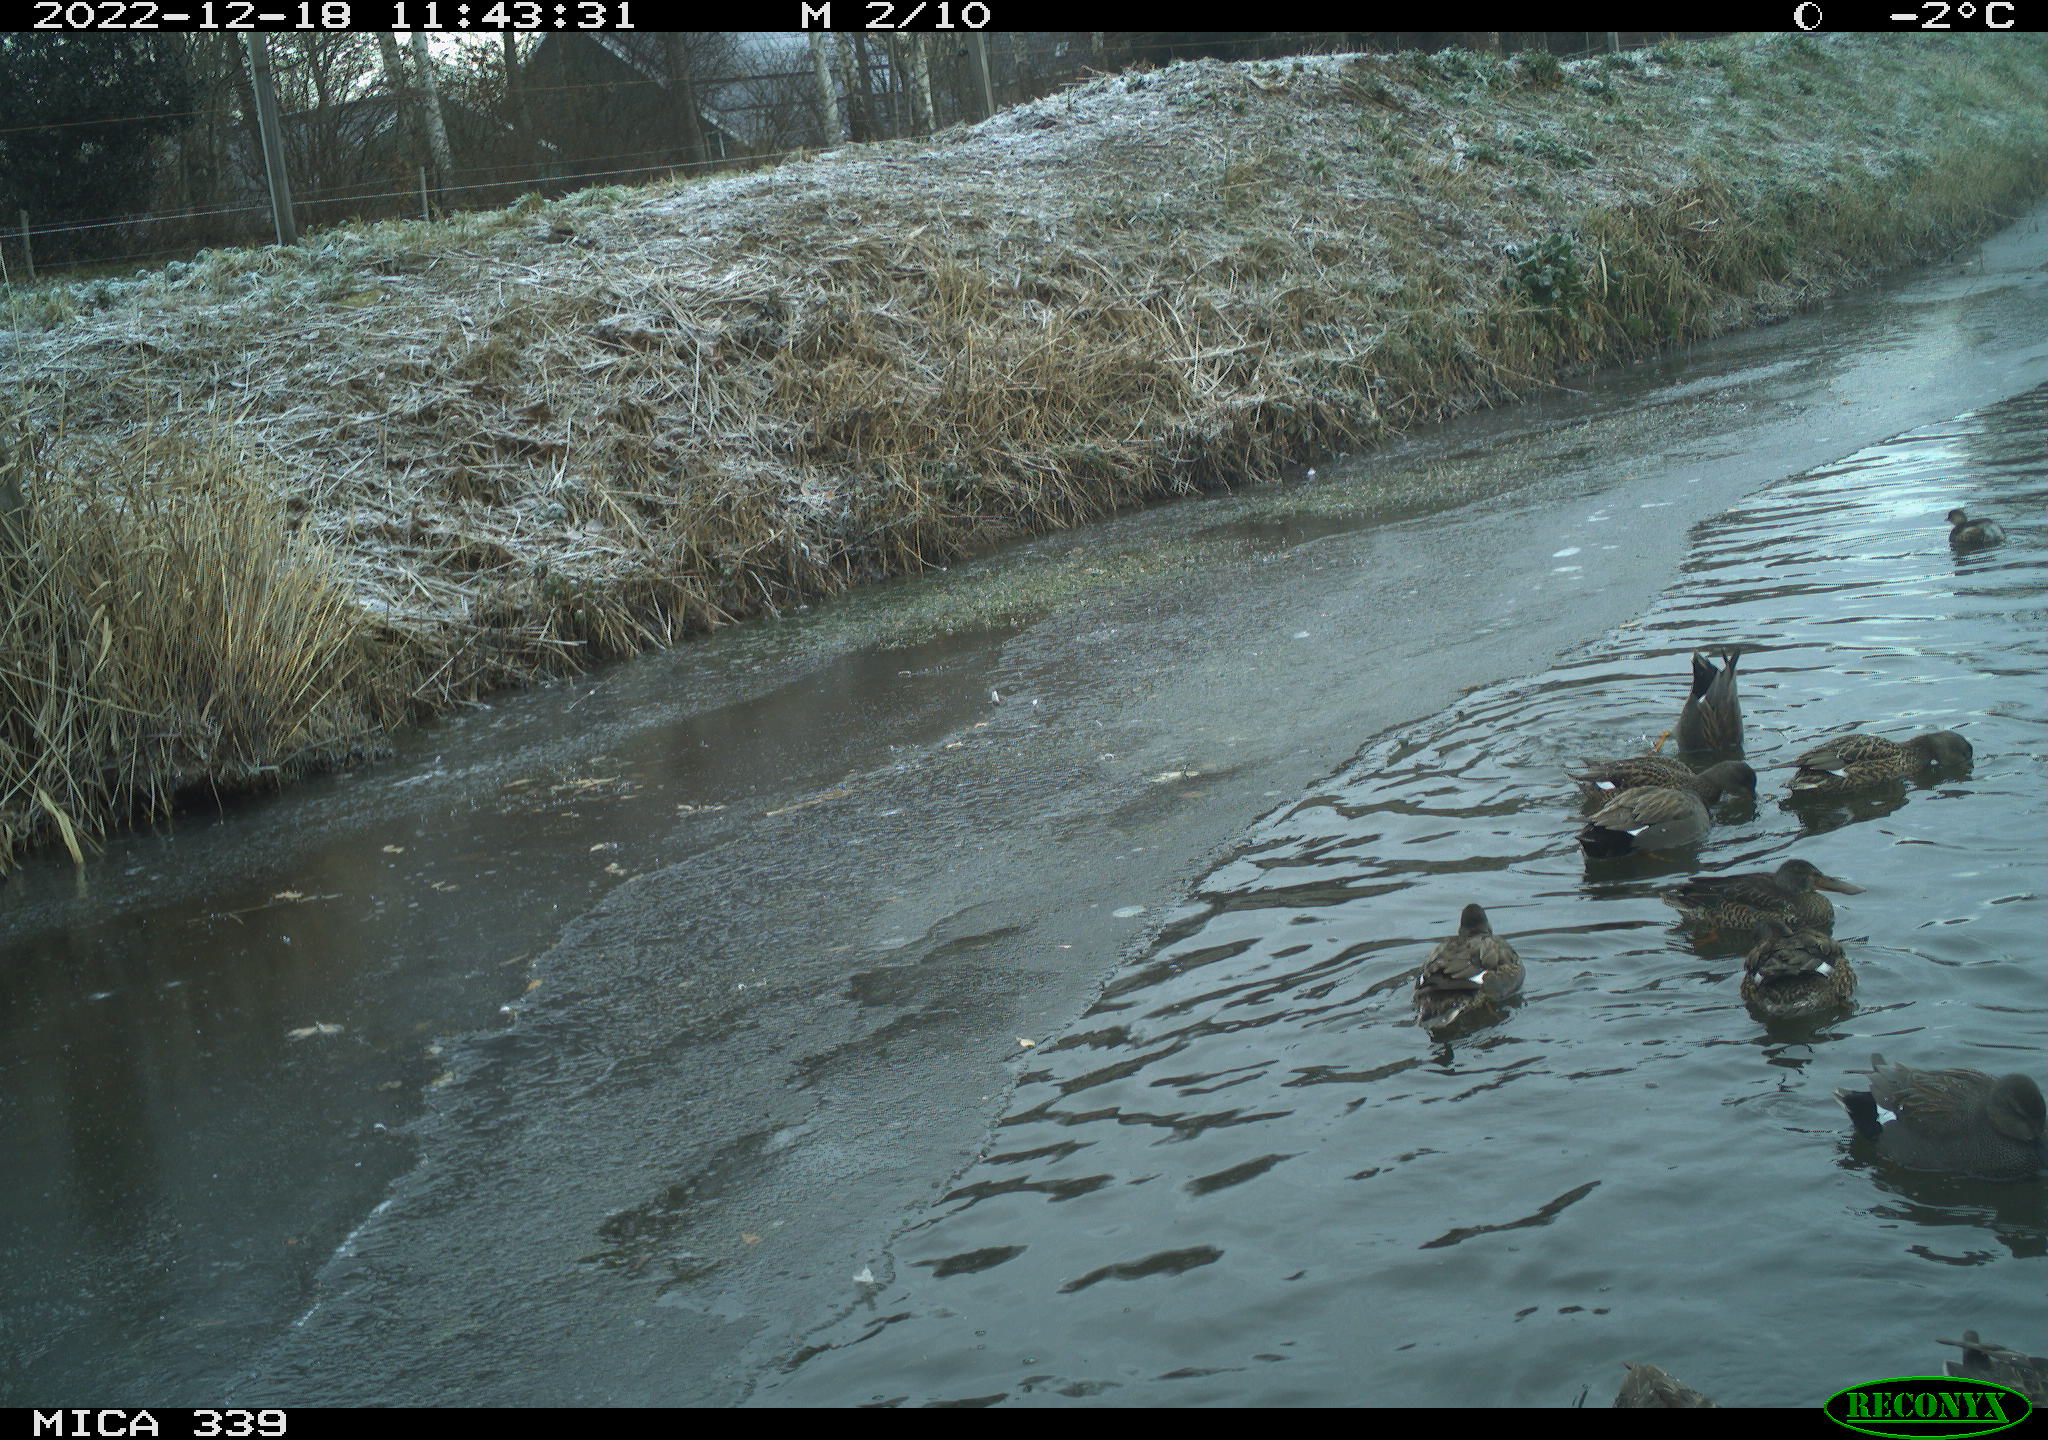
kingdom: Animalia
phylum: Chordata
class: Aves
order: Anseriformes
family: Anatidae
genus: Anas
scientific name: Anas
